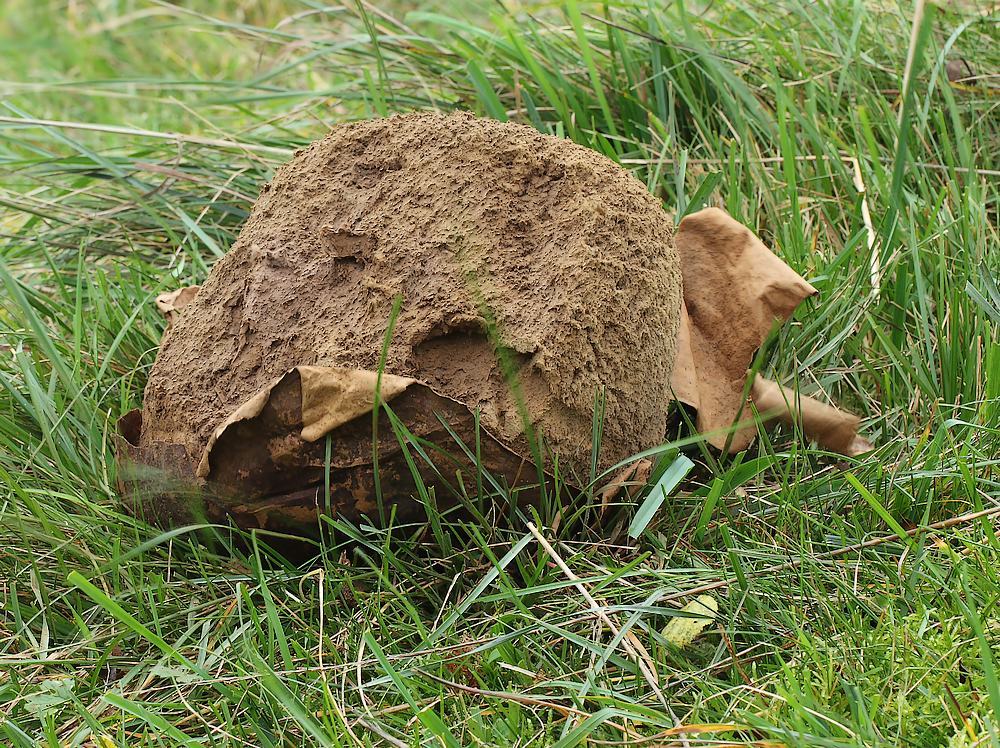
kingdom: Fungi
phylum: Basidiomycota
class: Agaricomycetes
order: Agaricales
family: Lycoperdaceae
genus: Calvatia
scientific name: Calvatia gigantea
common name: kæmpestøvbold
